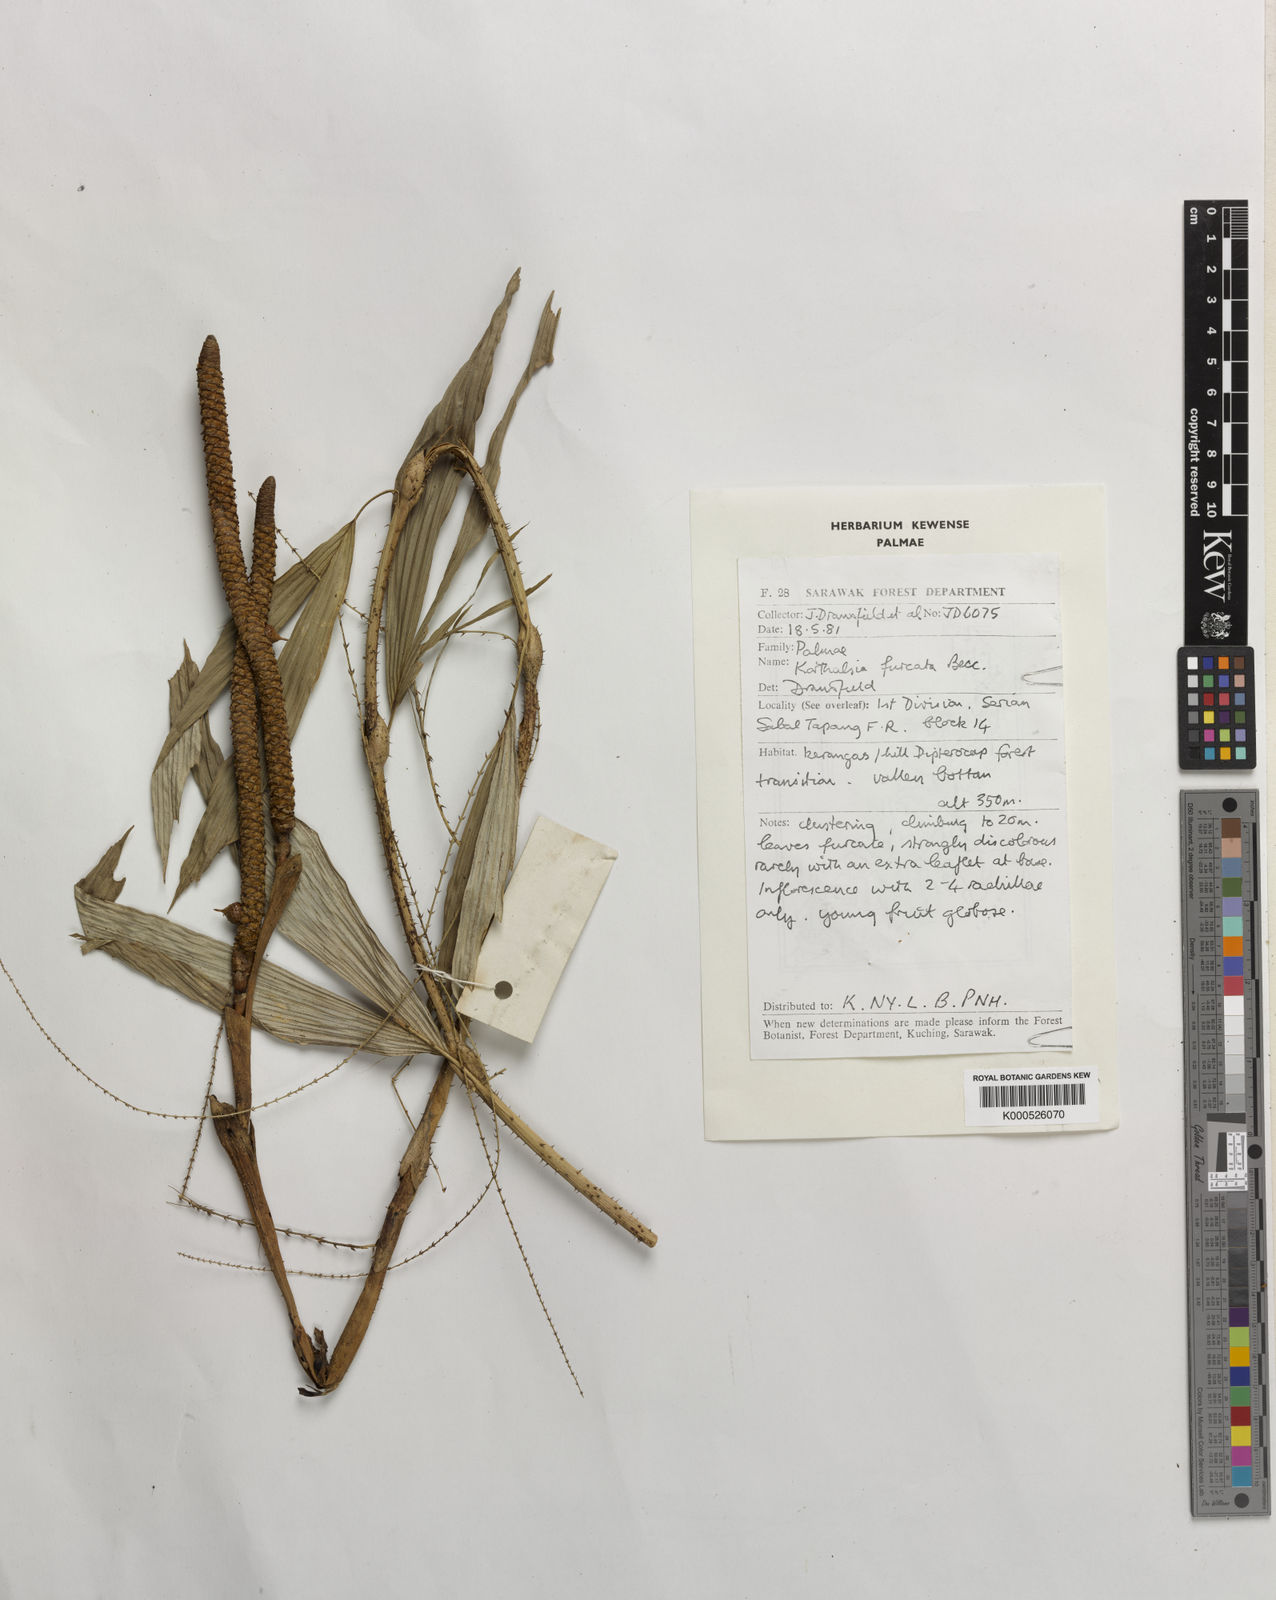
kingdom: Plantae
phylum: Tracheophyta
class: Liliopsida
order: Arecales
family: Arecaceae
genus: Korthalsia
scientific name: Korthalsia furcata
